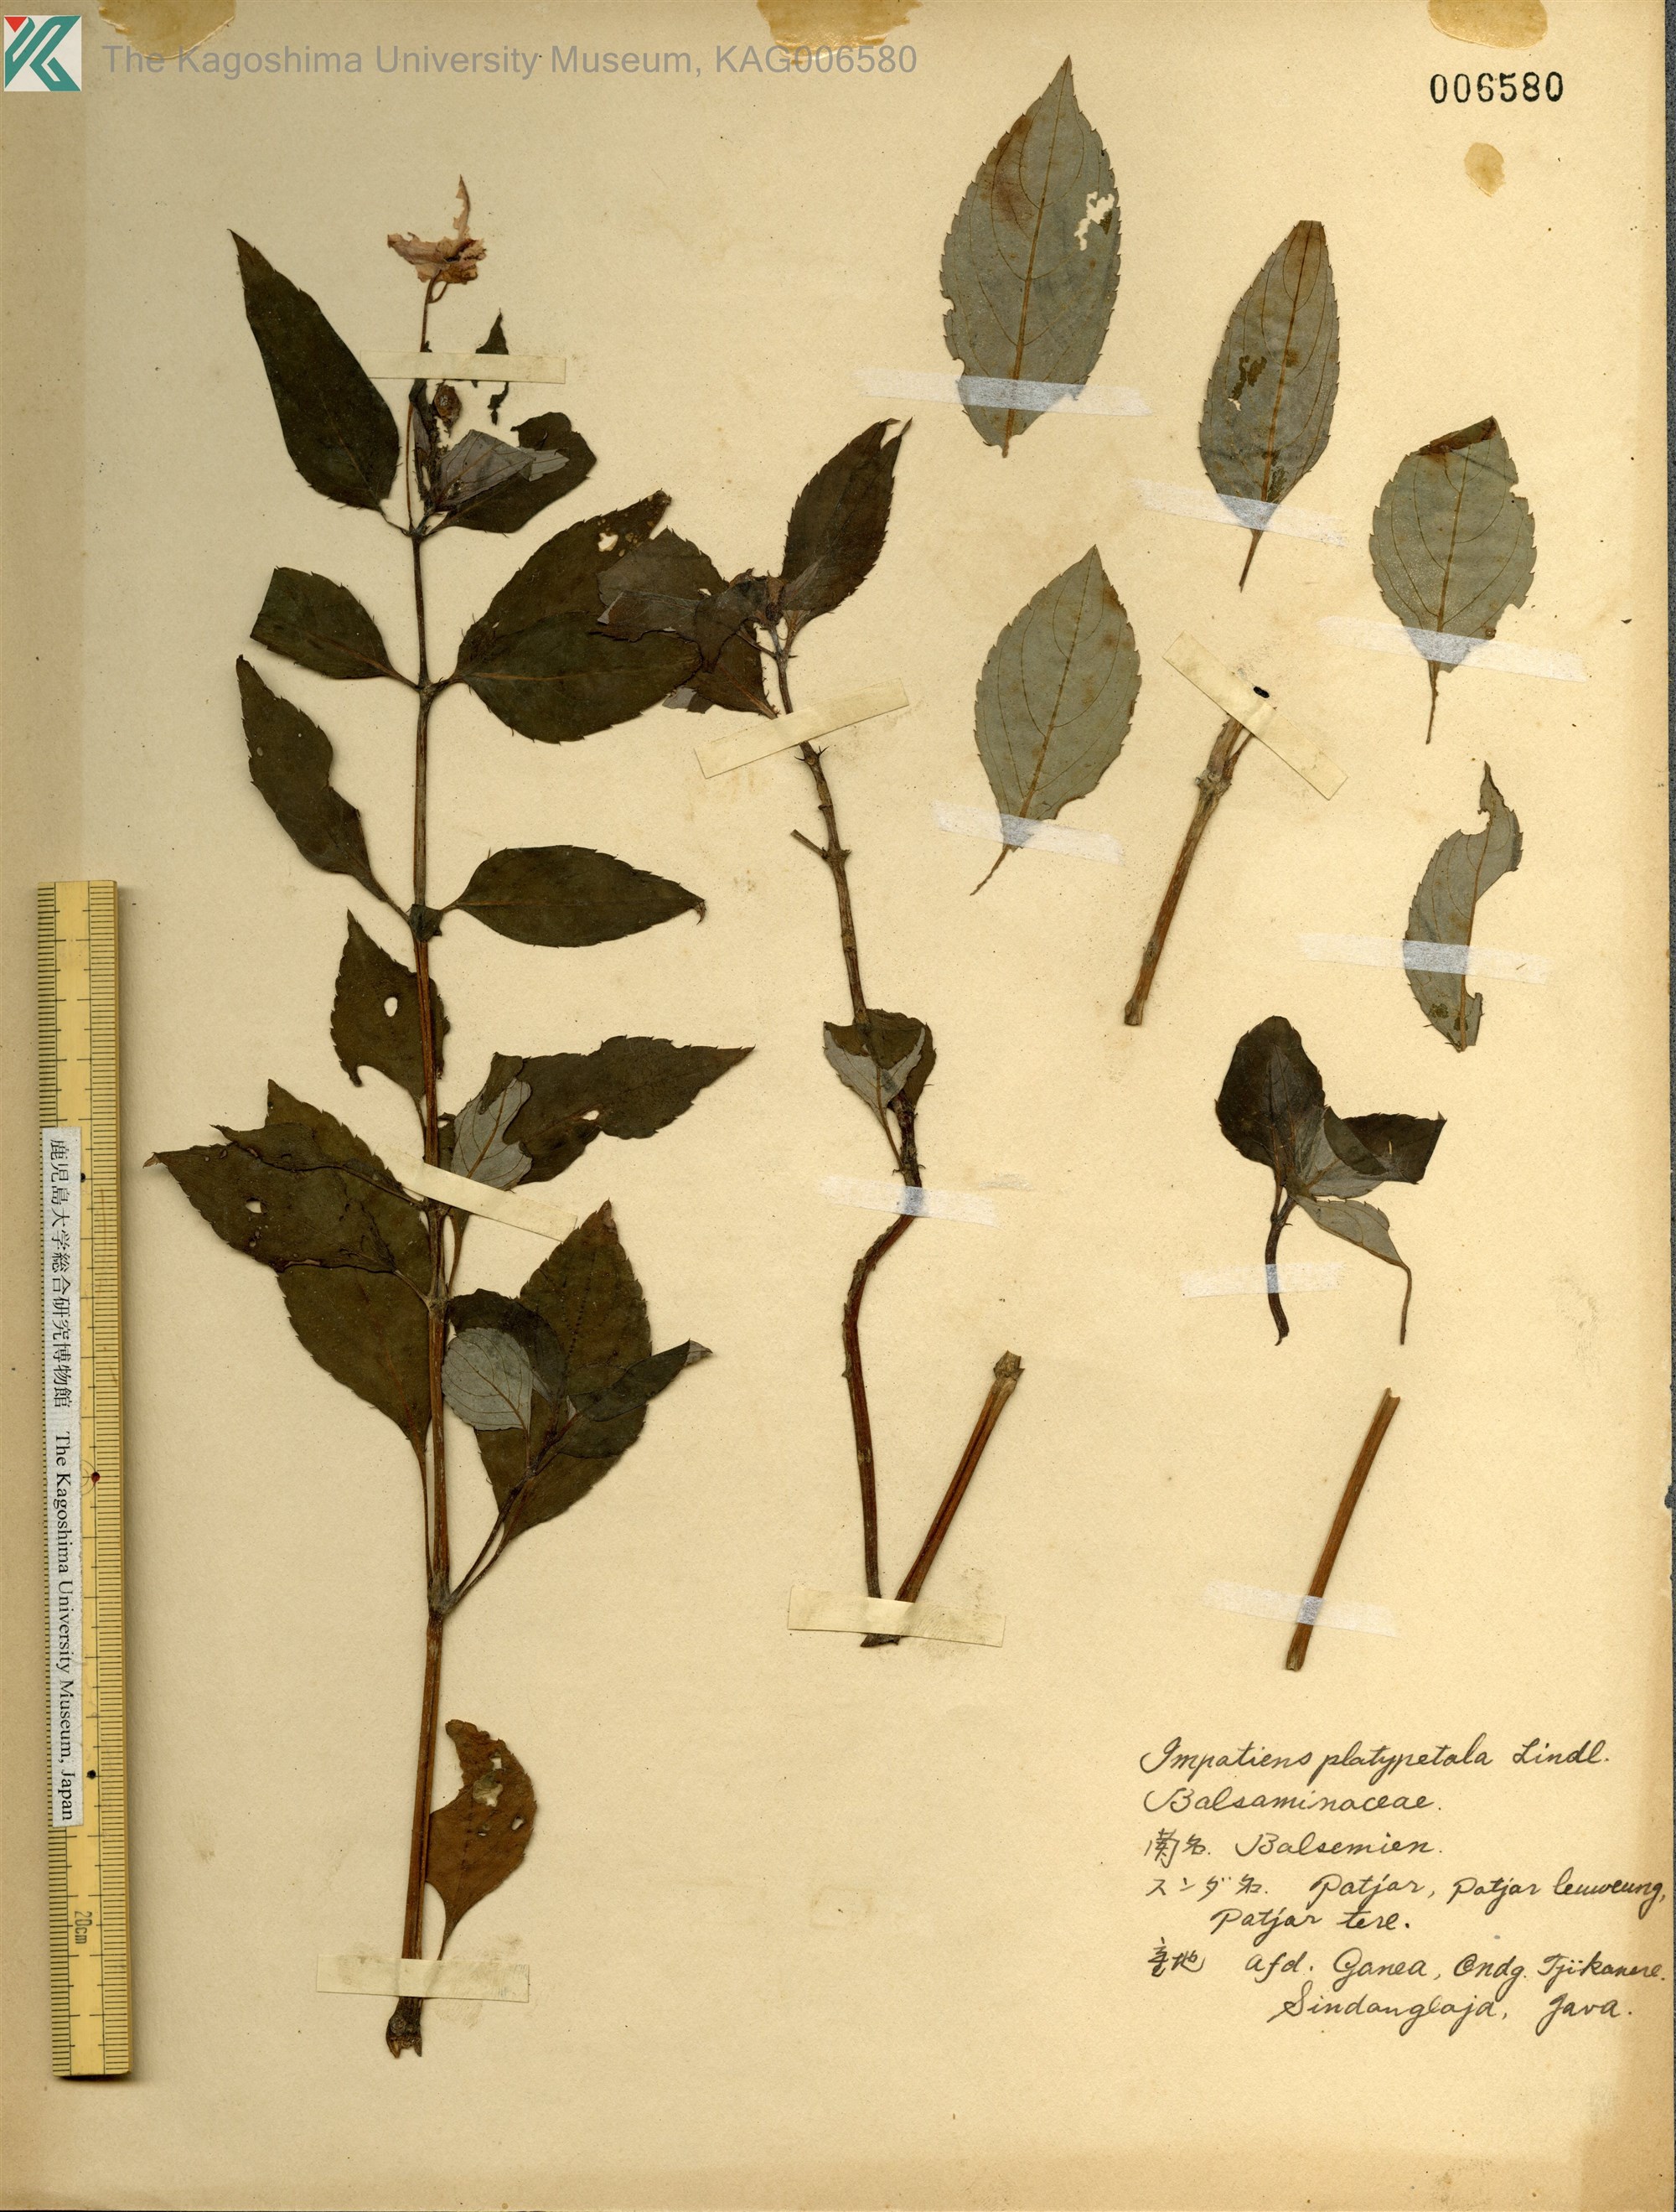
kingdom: Plantae
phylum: Tracheophyta
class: Magnoliopsida
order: Ericales
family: Balsaminaceae
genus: Impatiens
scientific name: Impatiens platypetala
